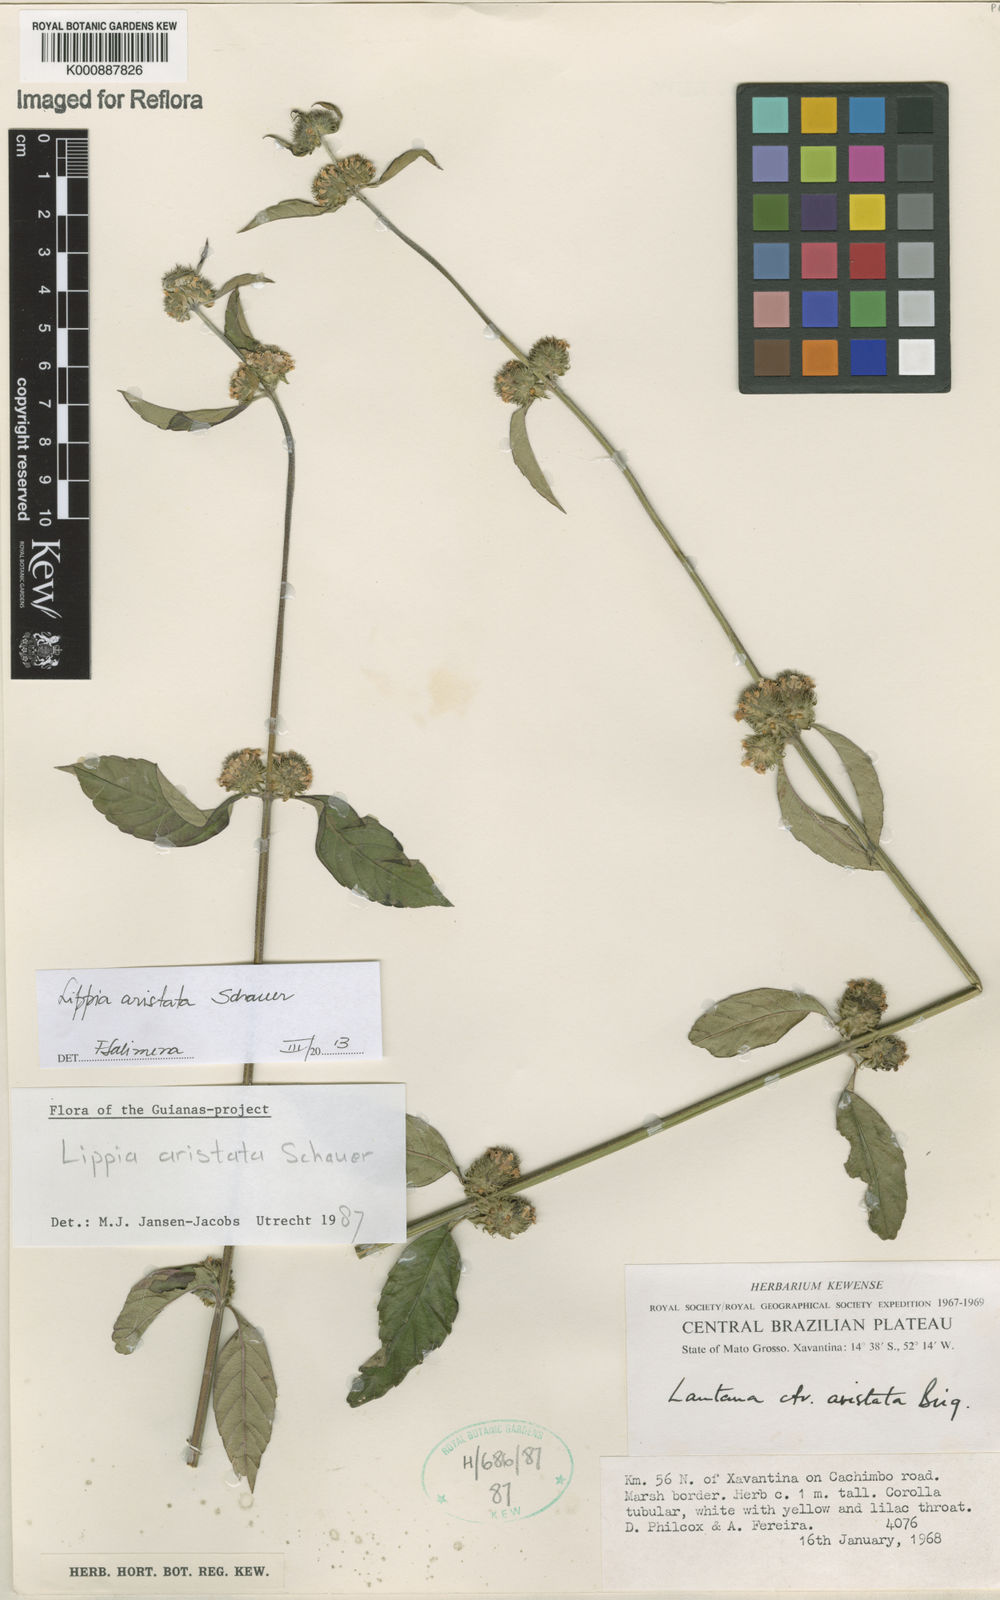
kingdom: Plantae
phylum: Tracheophyta
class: Magnoliopsida
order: Lamiales
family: Verbenaceae
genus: Lippia
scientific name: Lippia aristata
